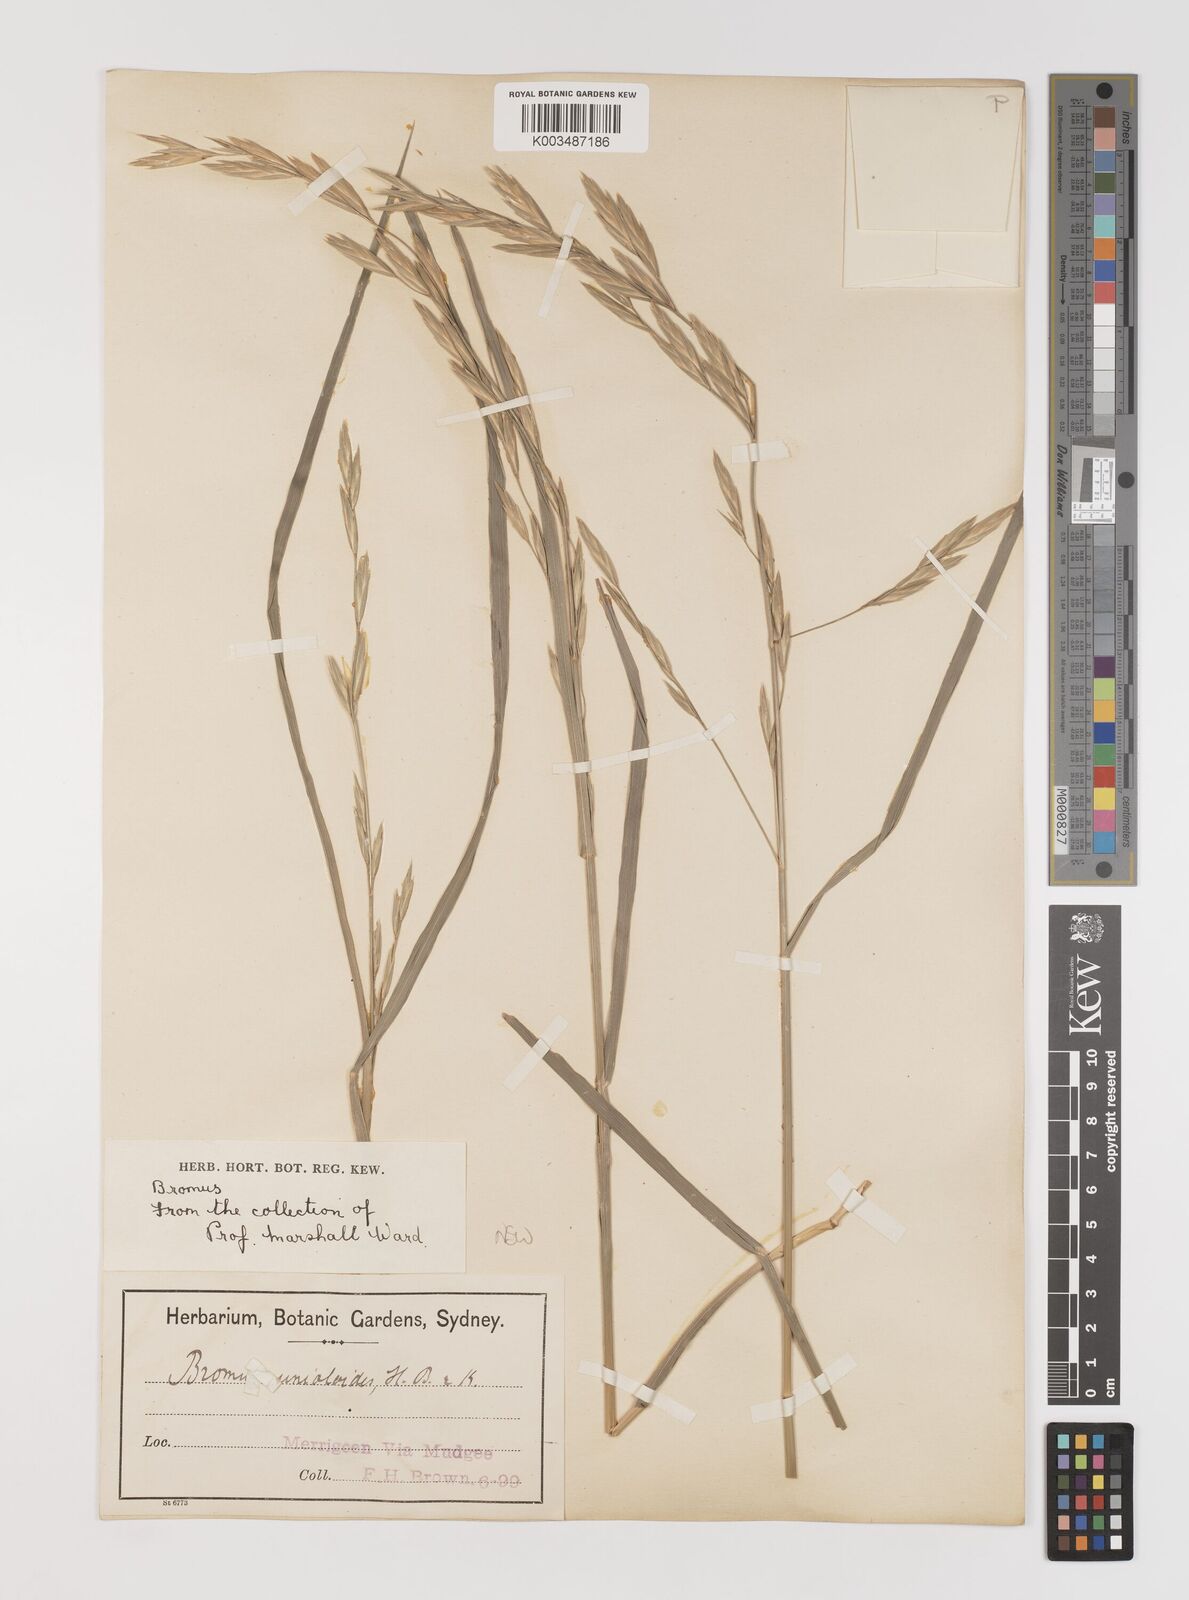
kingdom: Plantae
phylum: Tracheophyta
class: Liliopsida
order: Poales
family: Poaceae
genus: Bromus
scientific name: Bromus catharticus
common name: Rescuegrass
